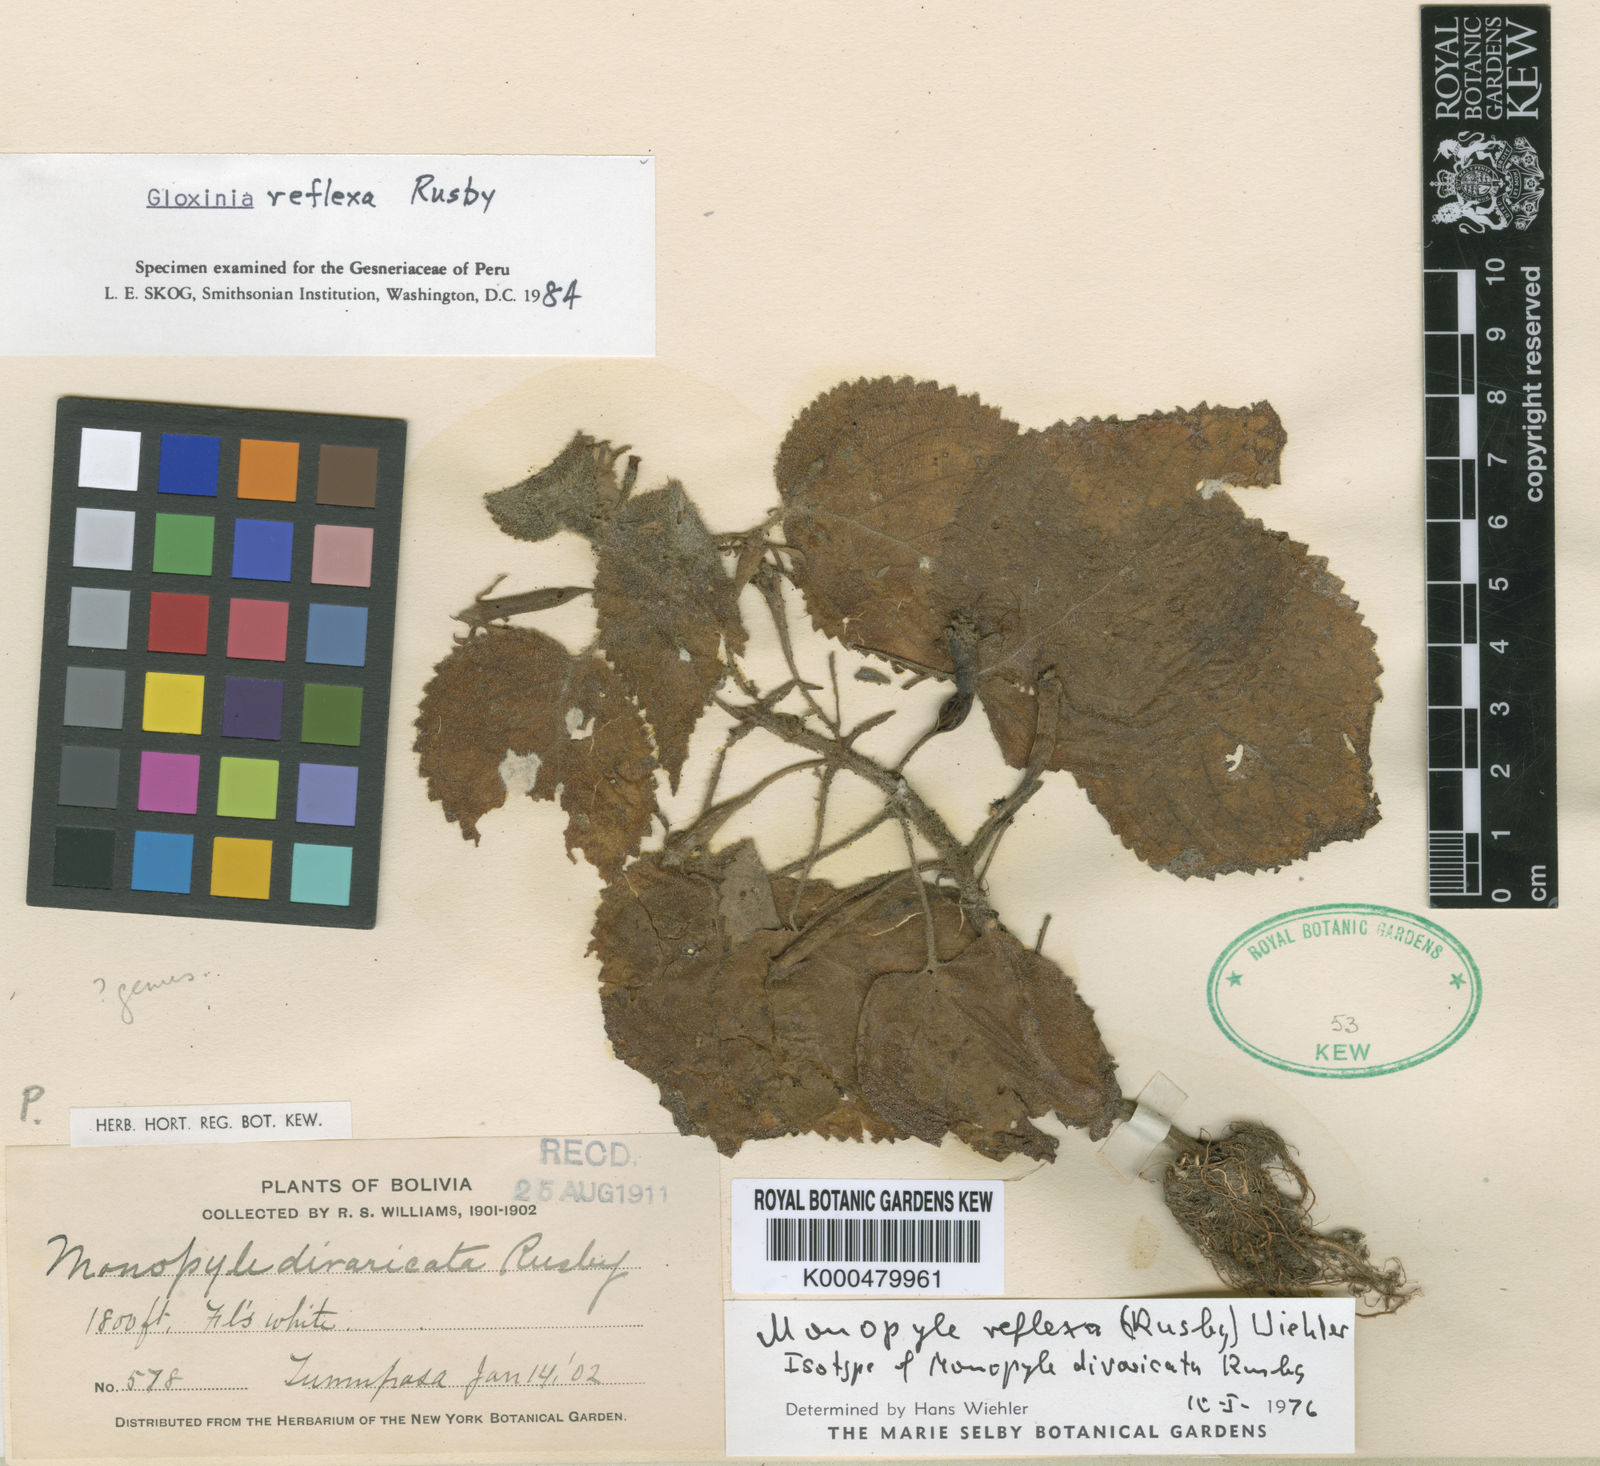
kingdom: Plantae
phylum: Tracheophyta
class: Magnoliopsida
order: Lamiales
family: Gesneriaceae
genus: Monopyle
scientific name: Monopyle reflexa
